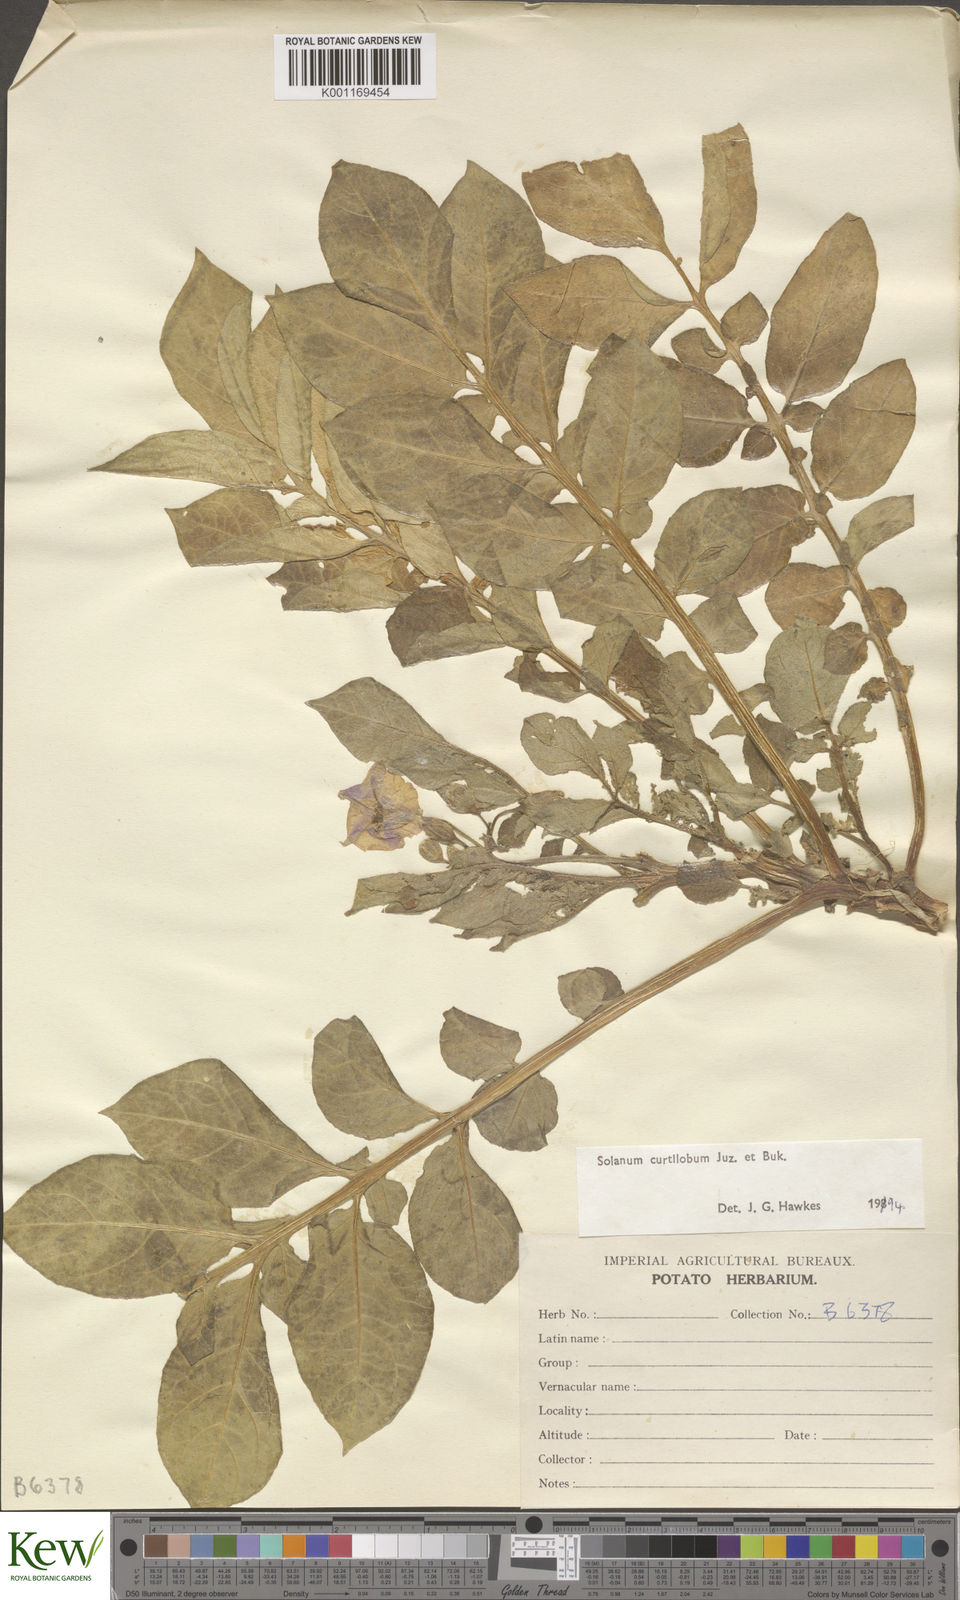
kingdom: Plantae
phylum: Tracheophyta
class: Magnoliopsida
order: Solanales
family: Solanaceae
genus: Solanum
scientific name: Solanum curtilobum
